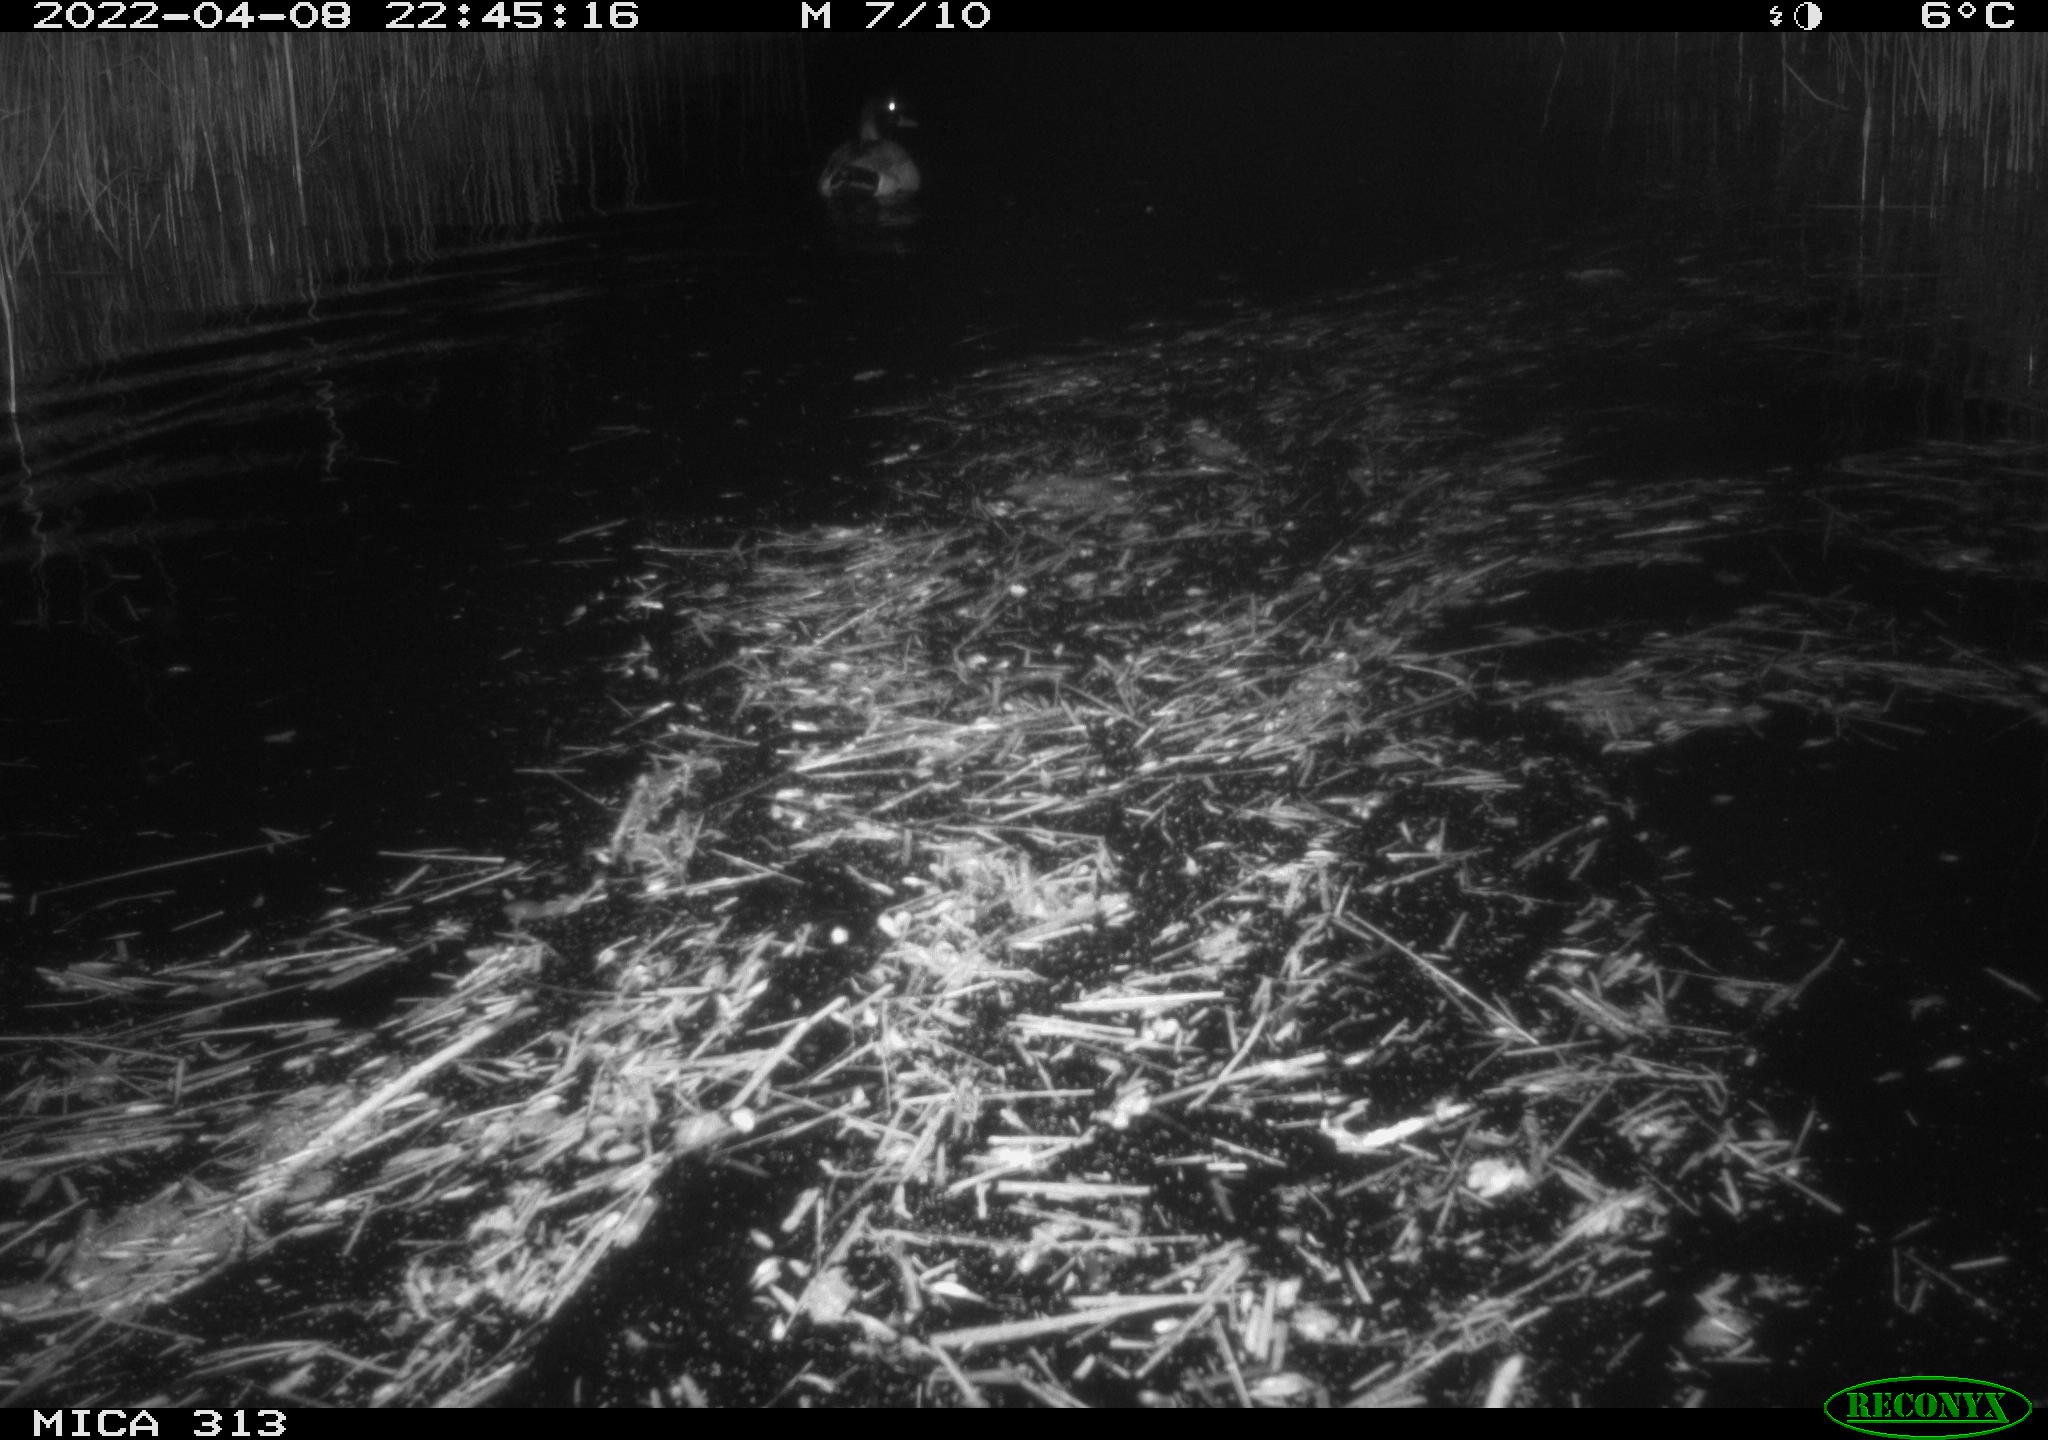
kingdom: Animalia
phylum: Chordata
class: Aves
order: Anseriformes
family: Anatidae
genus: Anas
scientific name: Anas platyrhynchos
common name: Mallard
